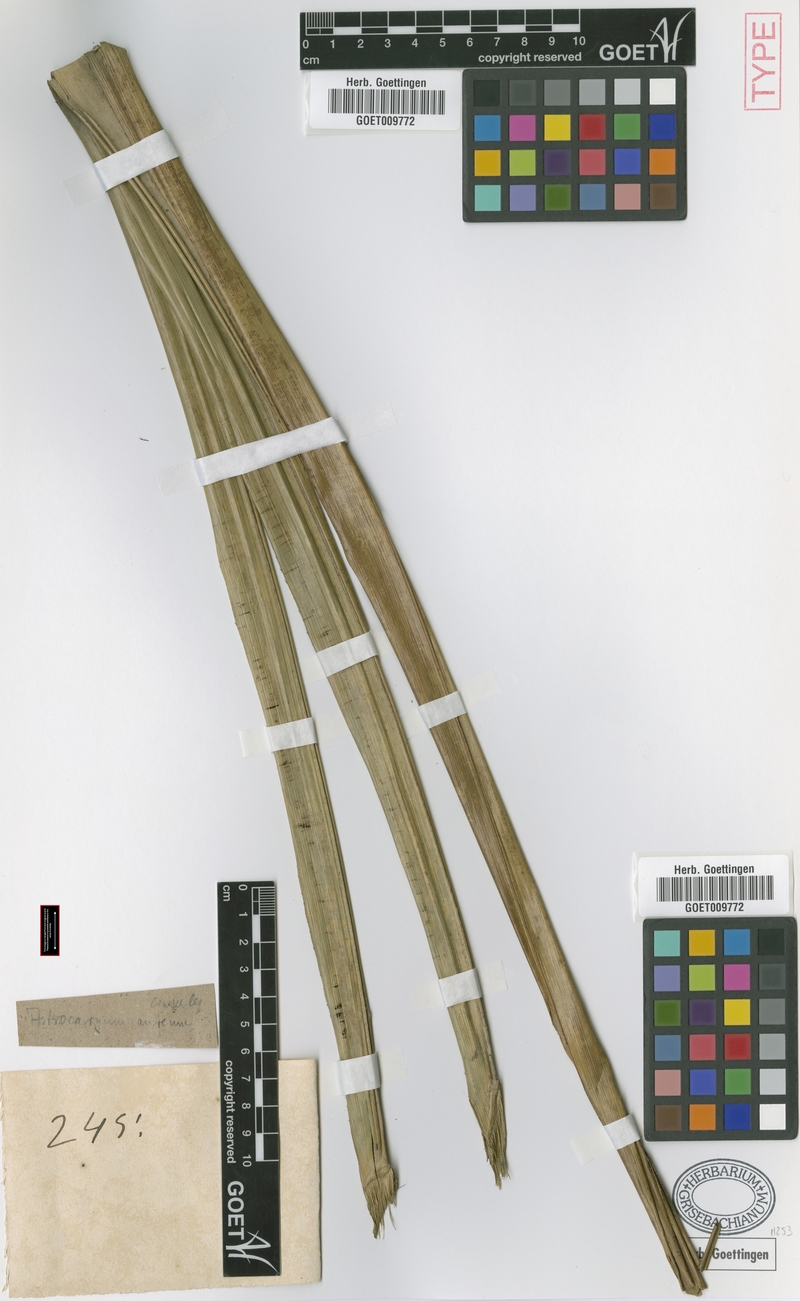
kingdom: Plantae
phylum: Tracheophyta
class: Liliopsida
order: Arecales
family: Arecaceae
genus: Astrocaryum
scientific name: Astrocaryum aculeatum
